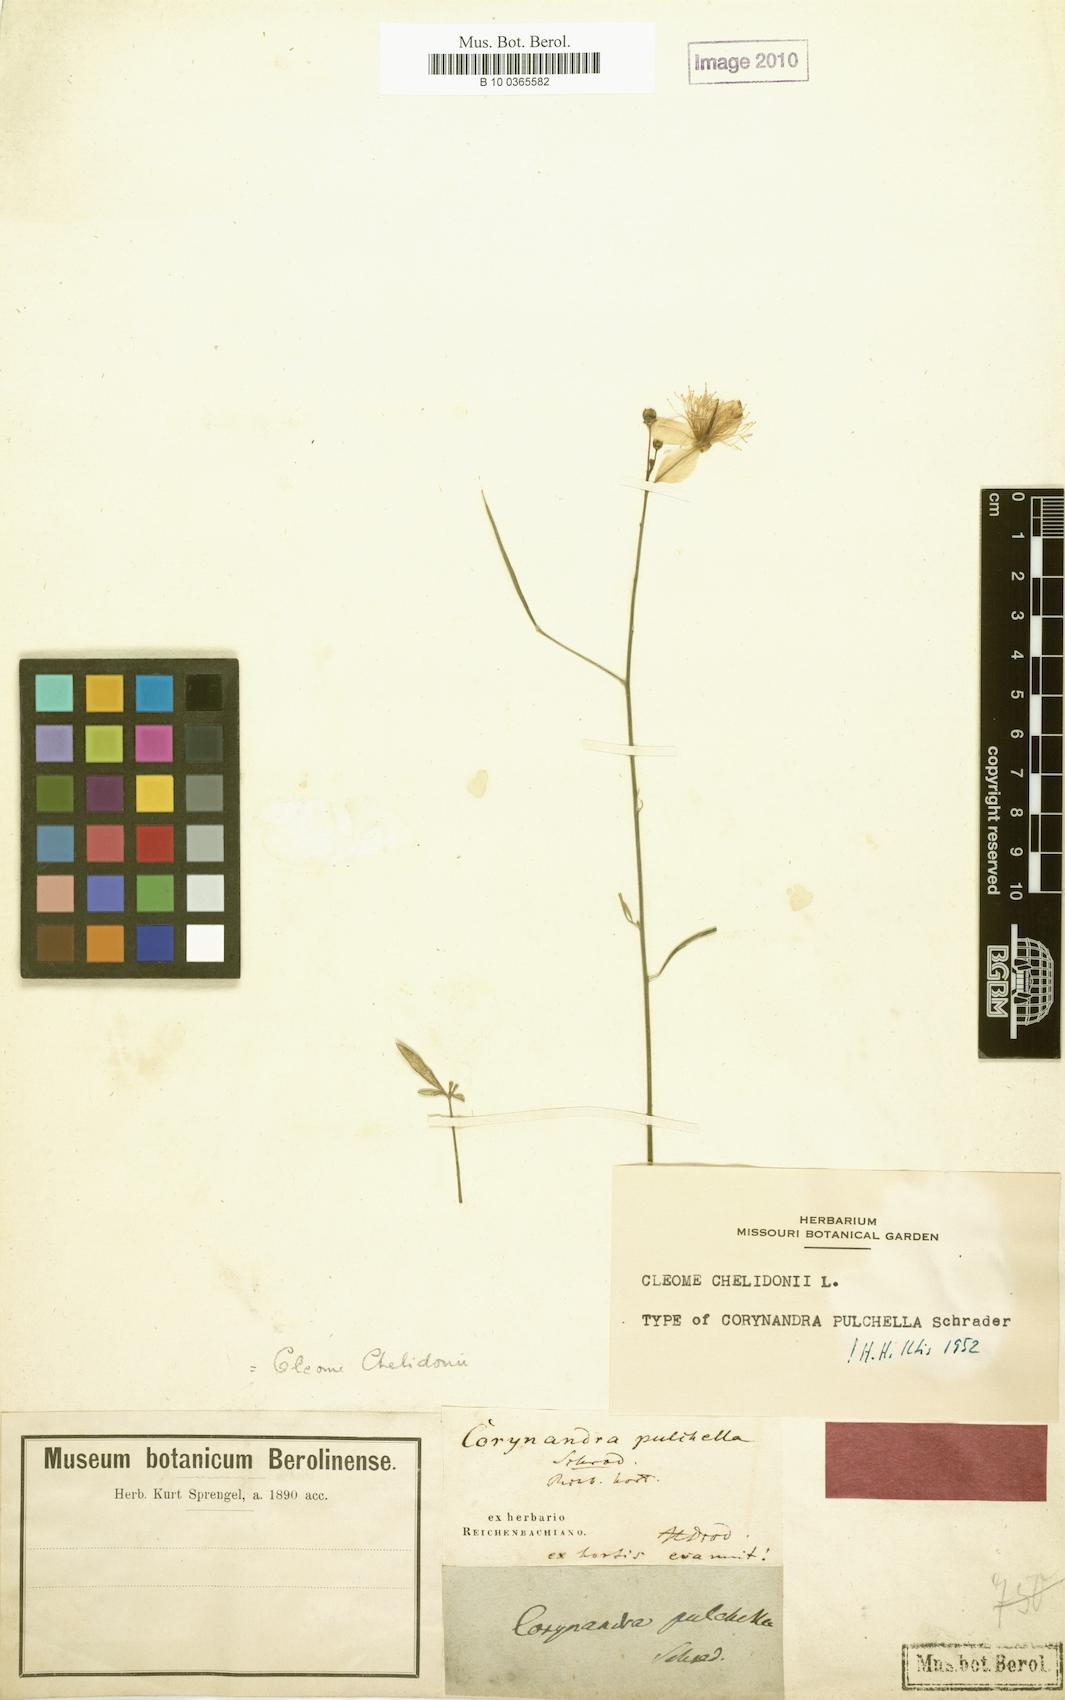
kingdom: Plantae
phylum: Tracheophyta
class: Magnoliopsida
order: Brassicales
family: Cleomaceae
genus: Corynandra
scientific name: Corynandra chelidonii
